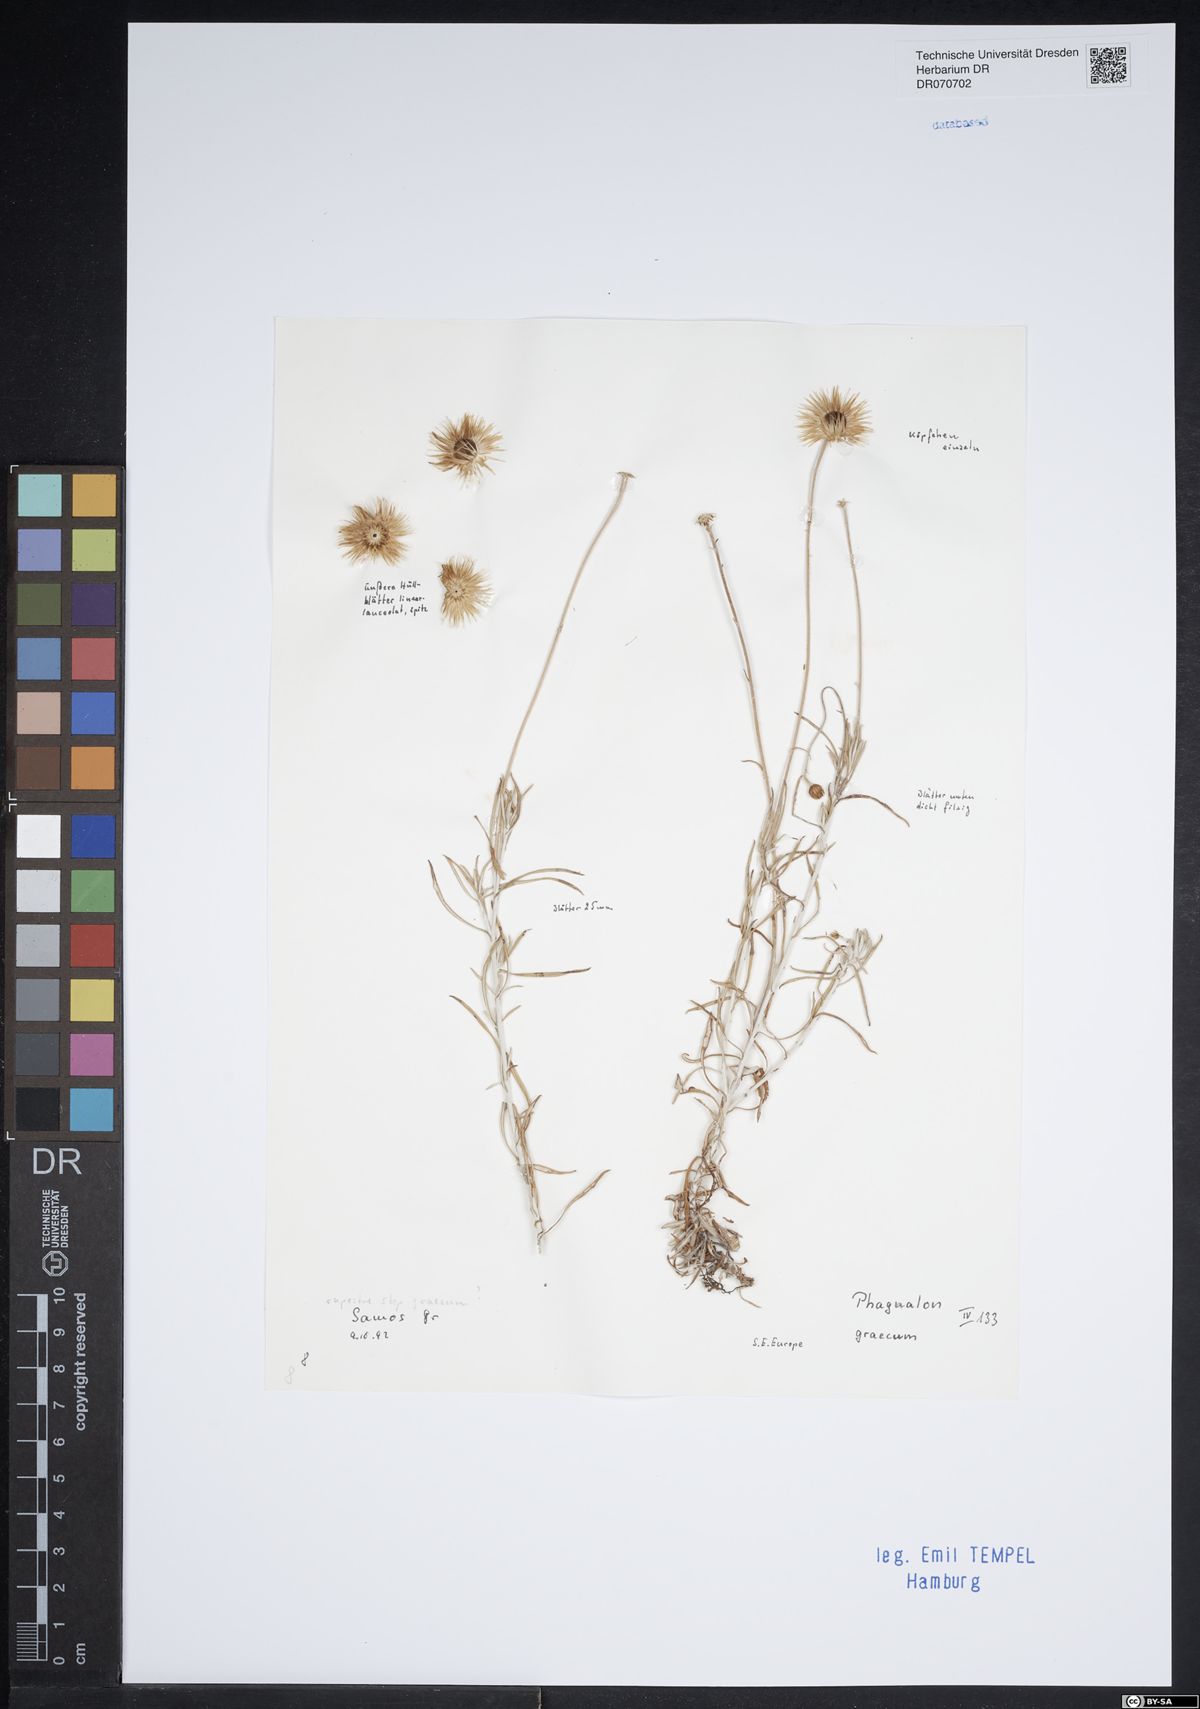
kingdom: Plantae
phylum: Tracheophyta
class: Magnoliopsida
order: Asterales
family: Asteraceae
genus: Phagnalon
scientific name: Phagnalon graecum
